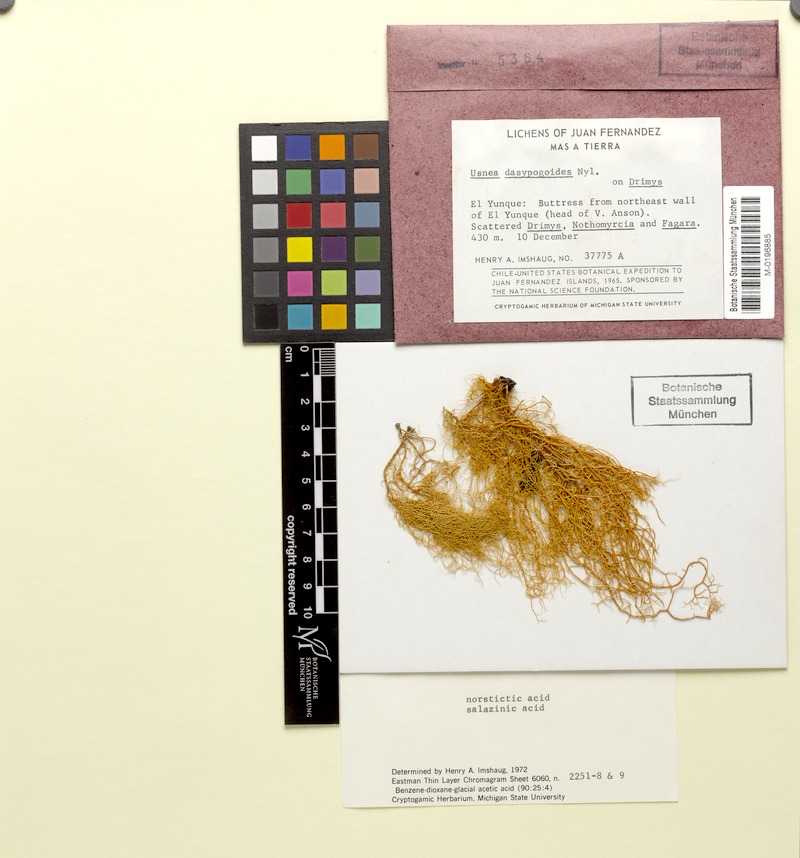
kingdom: Fungi
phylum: Ascomycota
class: Lecanoromycetes
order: Lecanorales
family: Parmeliaceae
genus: Bryoria
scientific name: Bryoria bicolor
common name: Electric horsehair lichen
